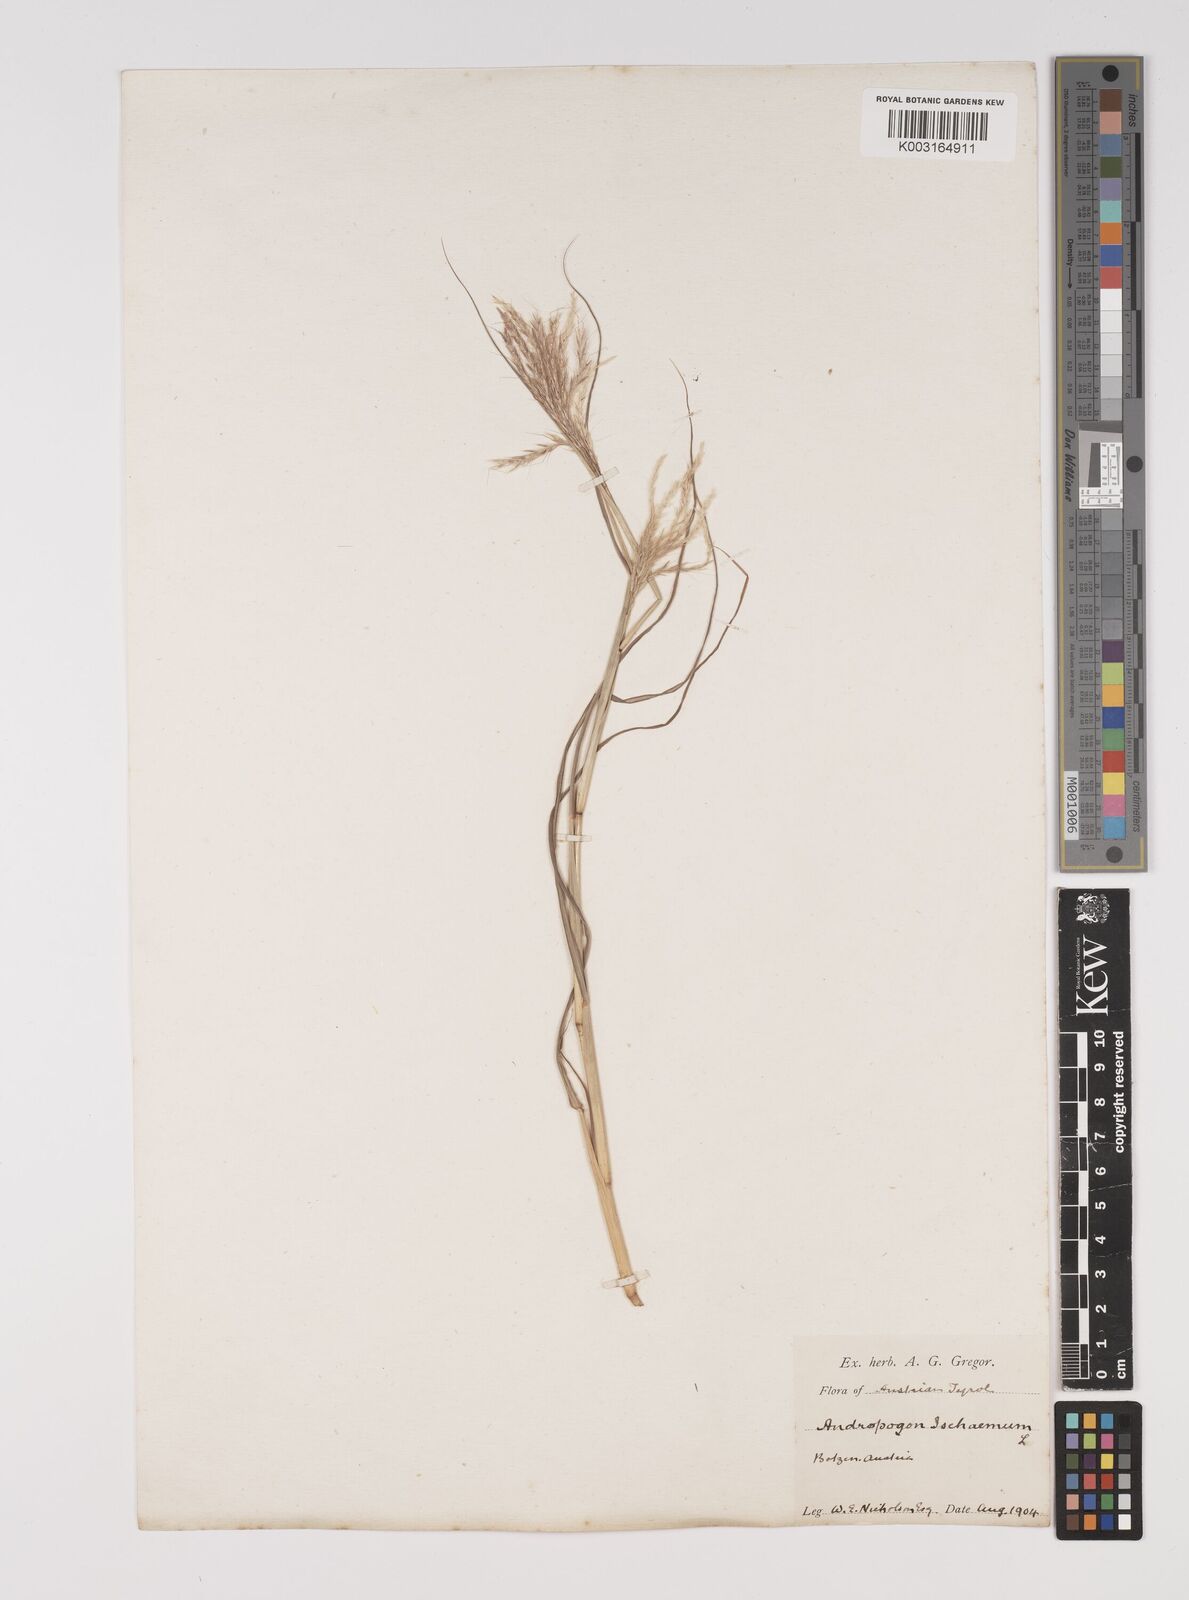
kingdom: Plantae
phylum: Tracheophyta
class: Liliopsida
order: Poales
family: Poaceae
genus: Bothriochloa
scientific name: Bothriochloa ischaemum
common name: Yellow bluestem
